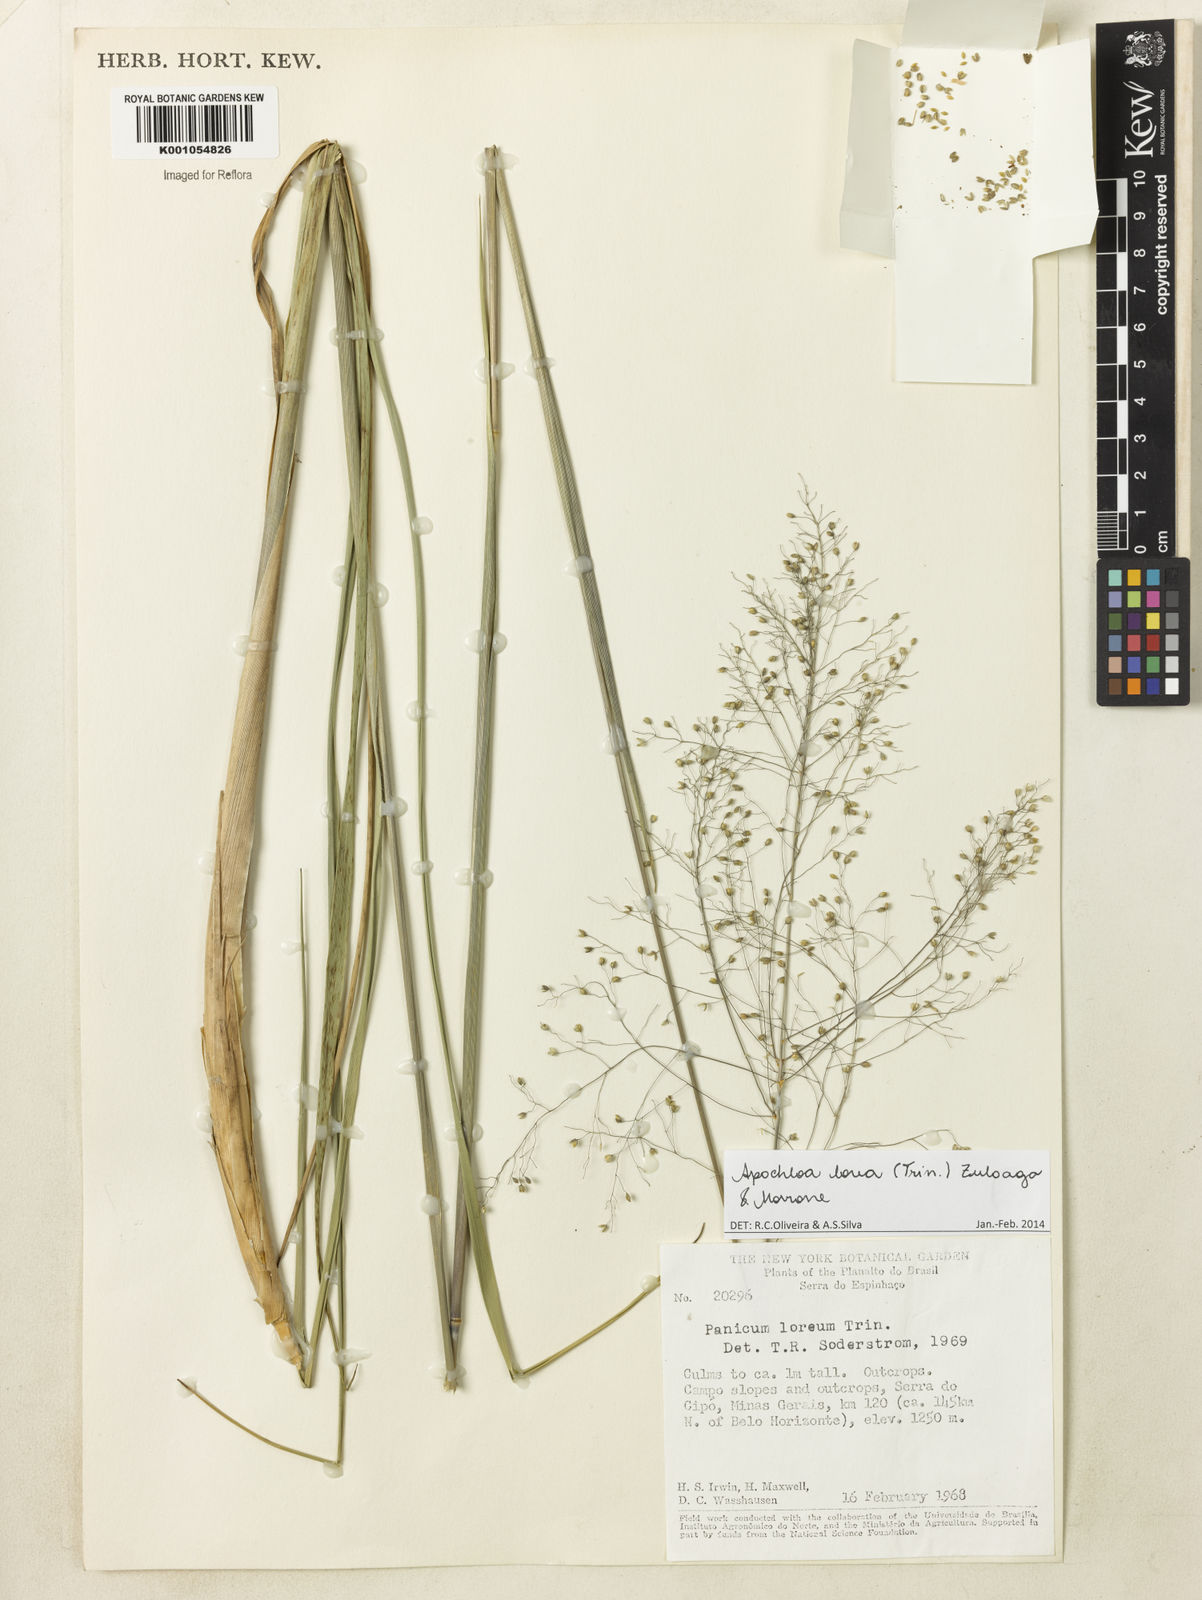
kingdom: Plantae
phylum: Tracheophyta
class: Liliopsida
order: Poales
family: Poaceae
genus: Apochloa
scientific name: Apochloa lorea
